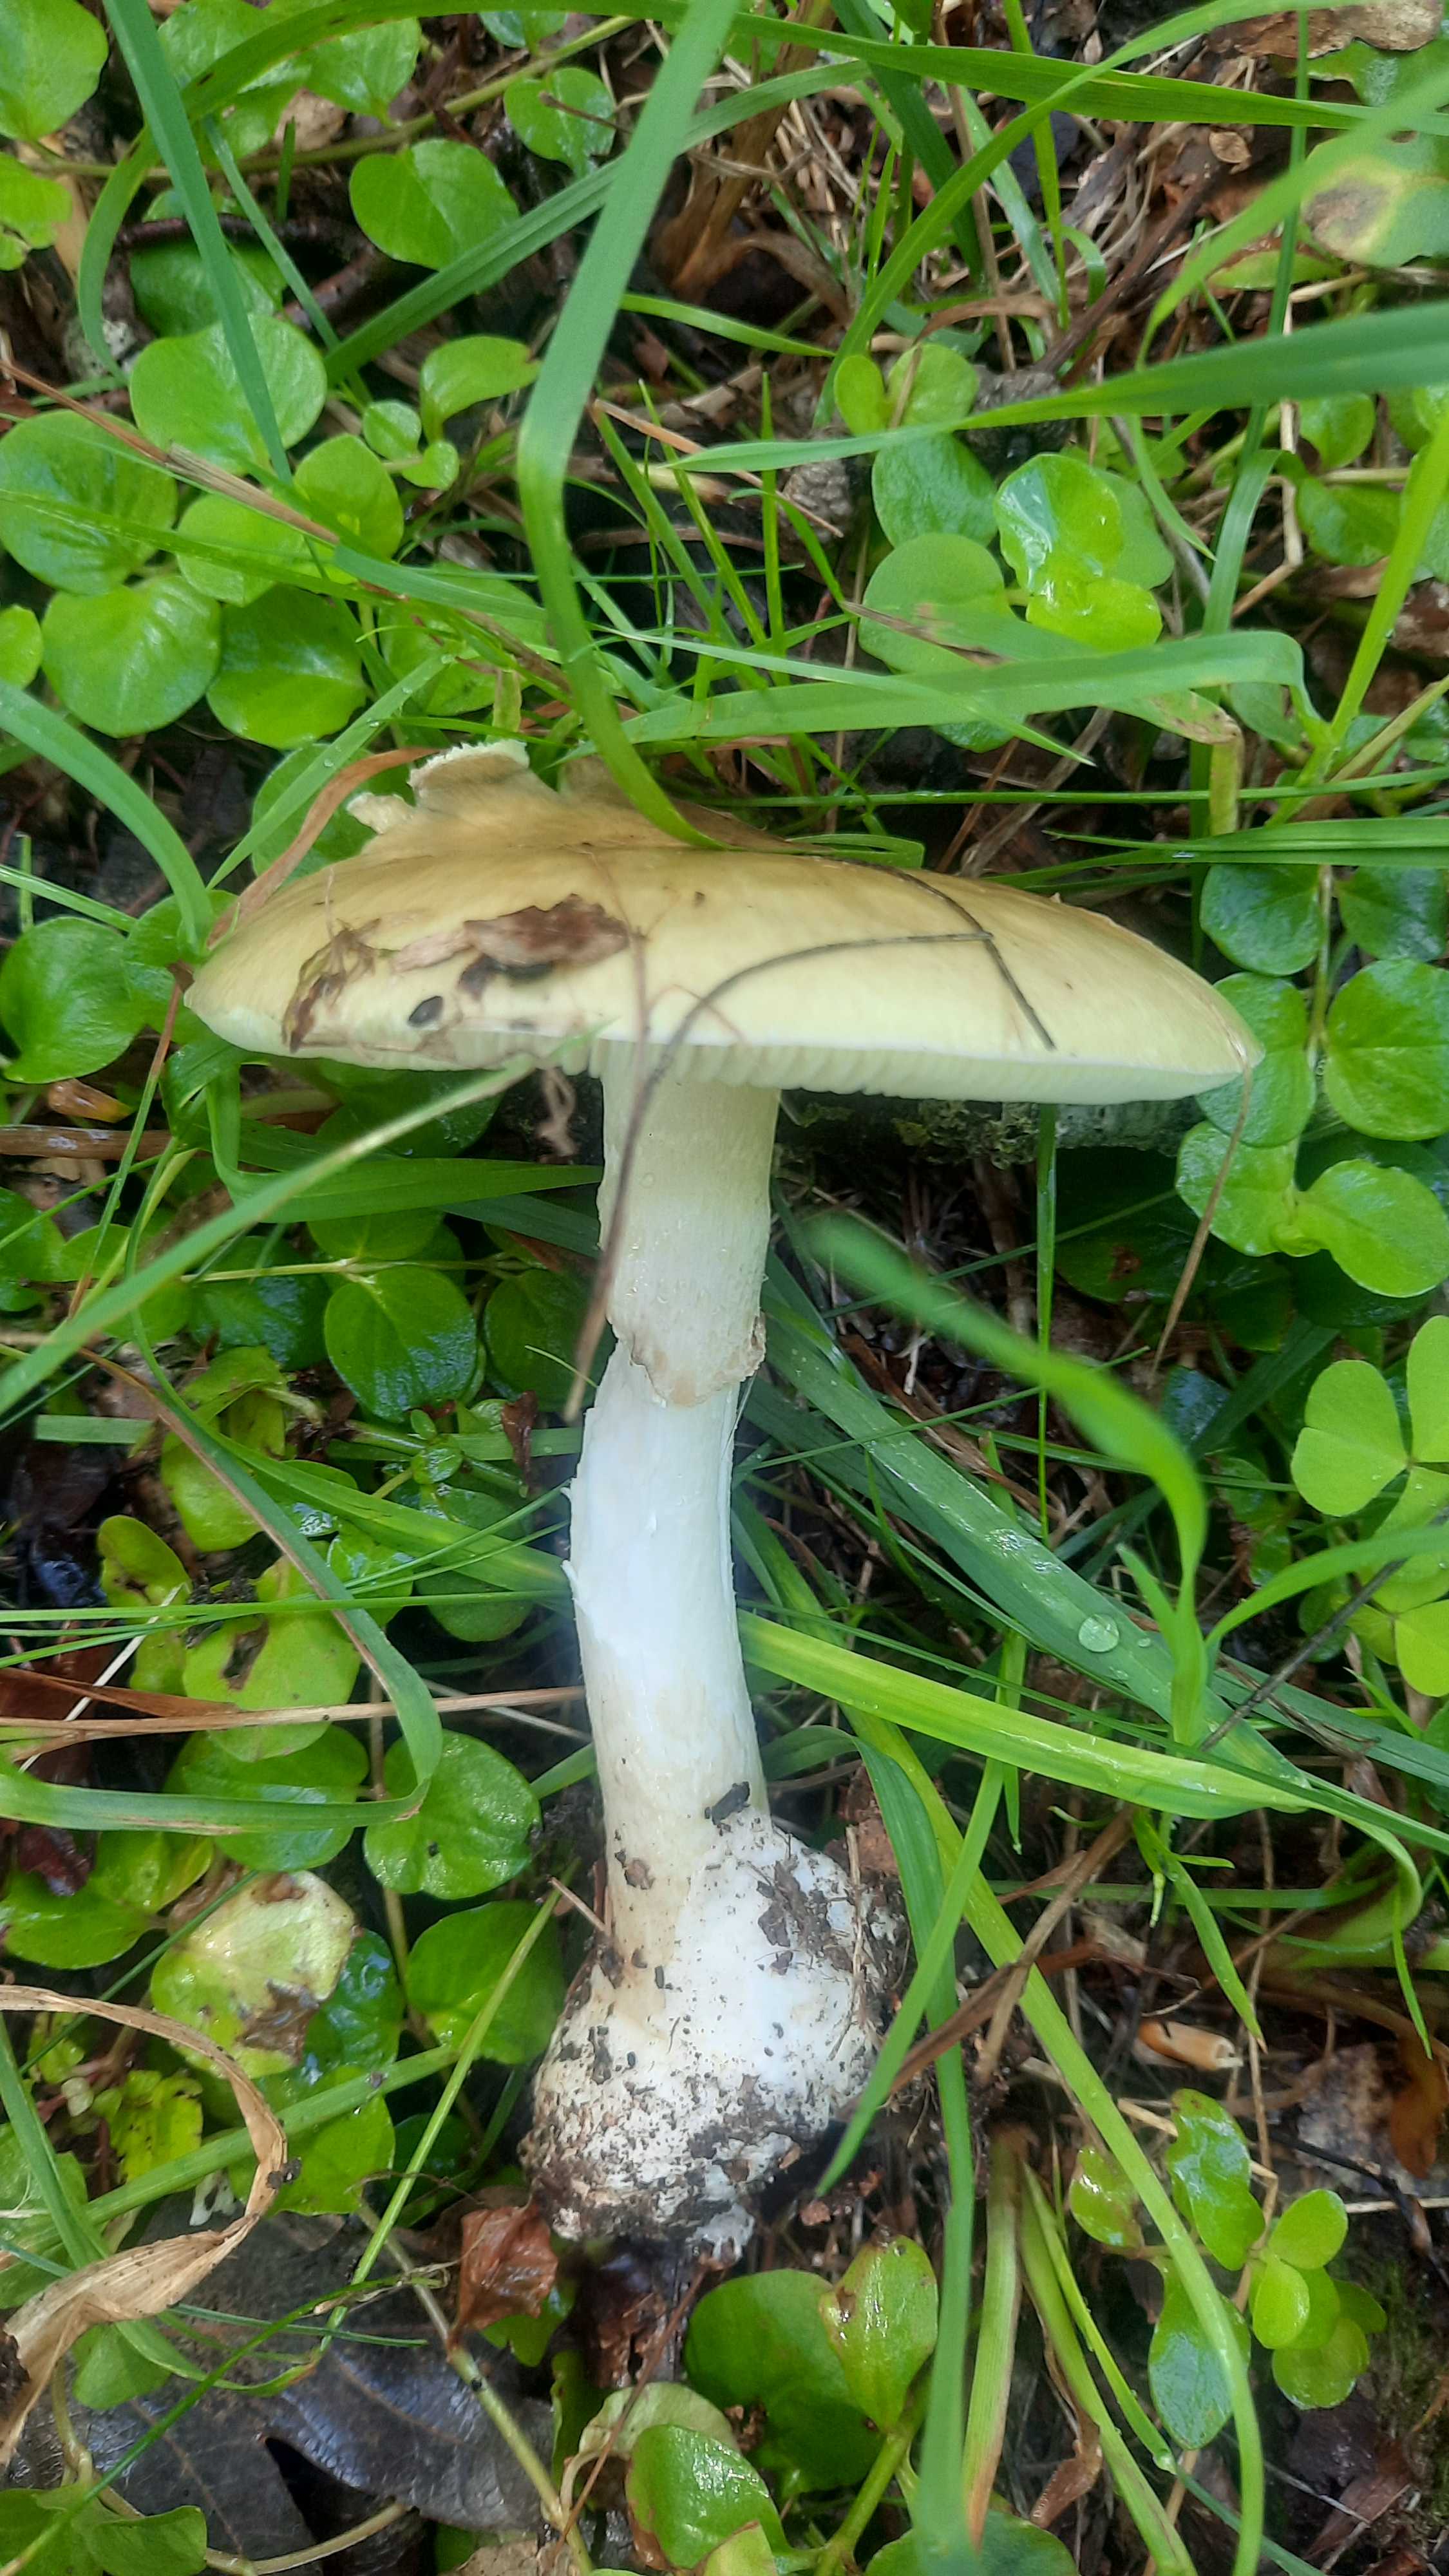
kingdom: Fungi
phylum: Basidiomycota
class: Agaricomycetes
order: Agaricales
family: Amanitaceae
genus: Amanita
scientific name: Amanita phalloides
